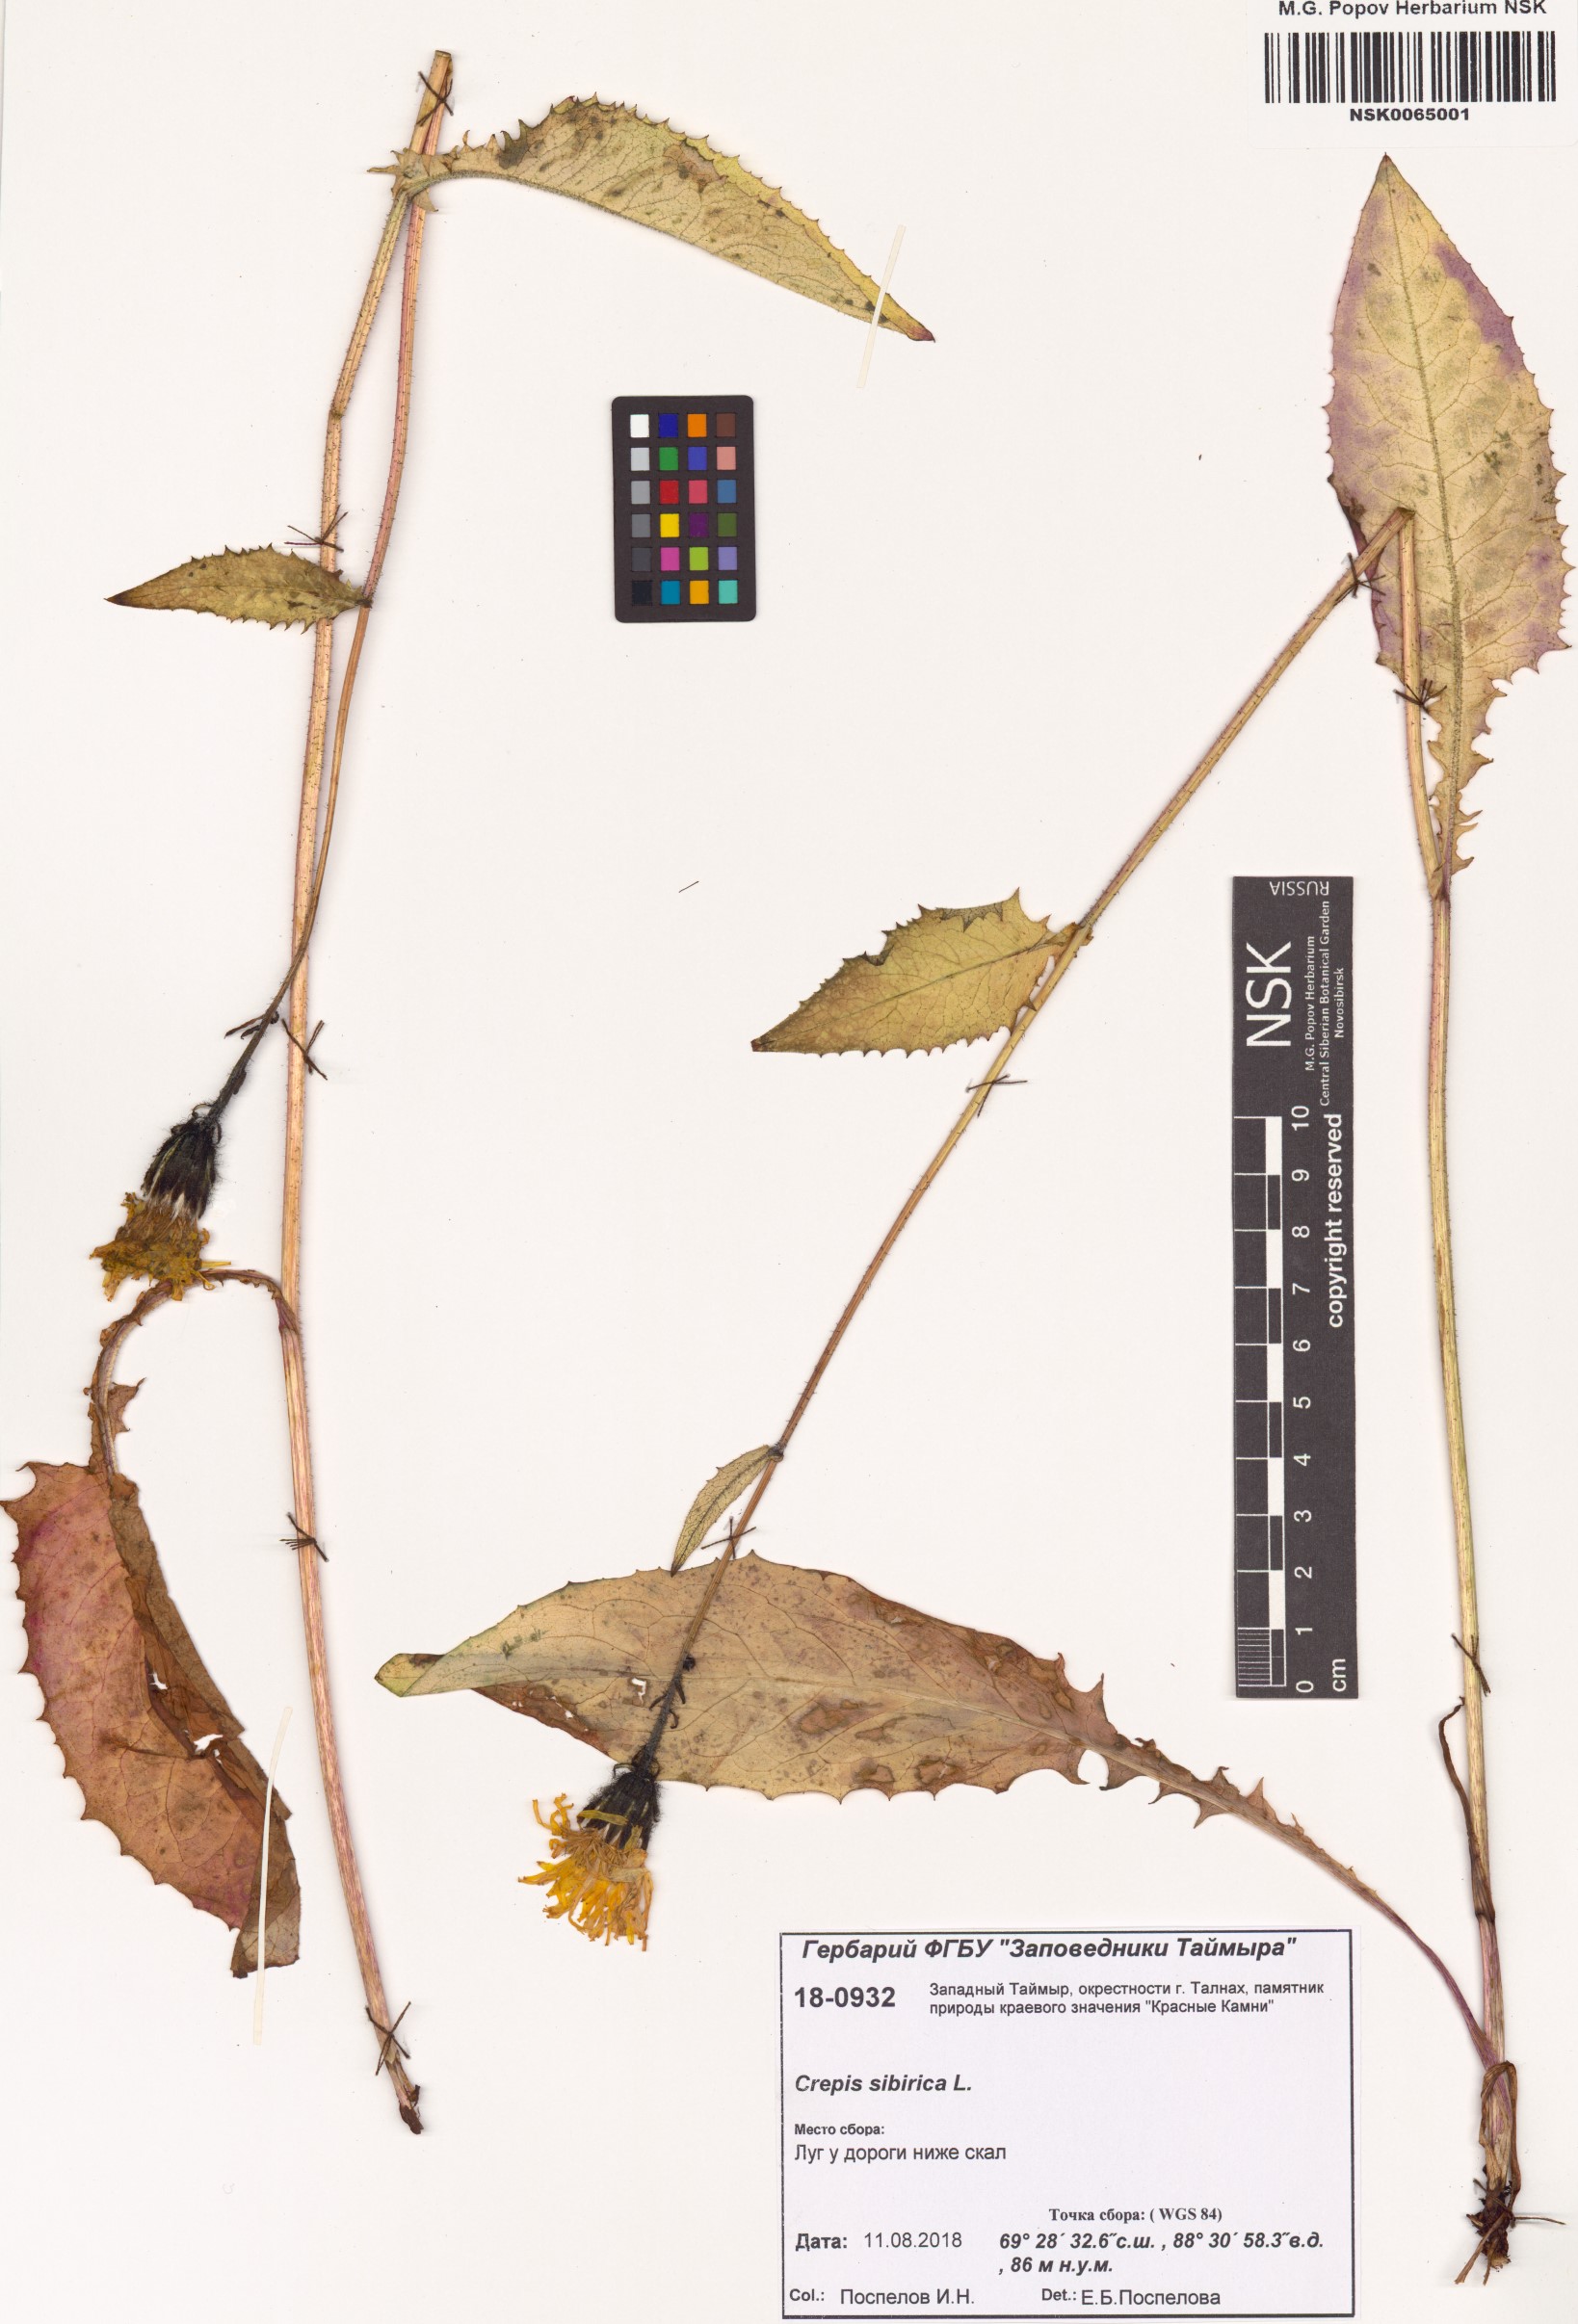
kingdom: Plantae
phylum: Tracheophyta
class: Magnoliopsida
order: Asterales
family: Asteraceae
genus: Crepis
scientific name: Crepis sibirica
